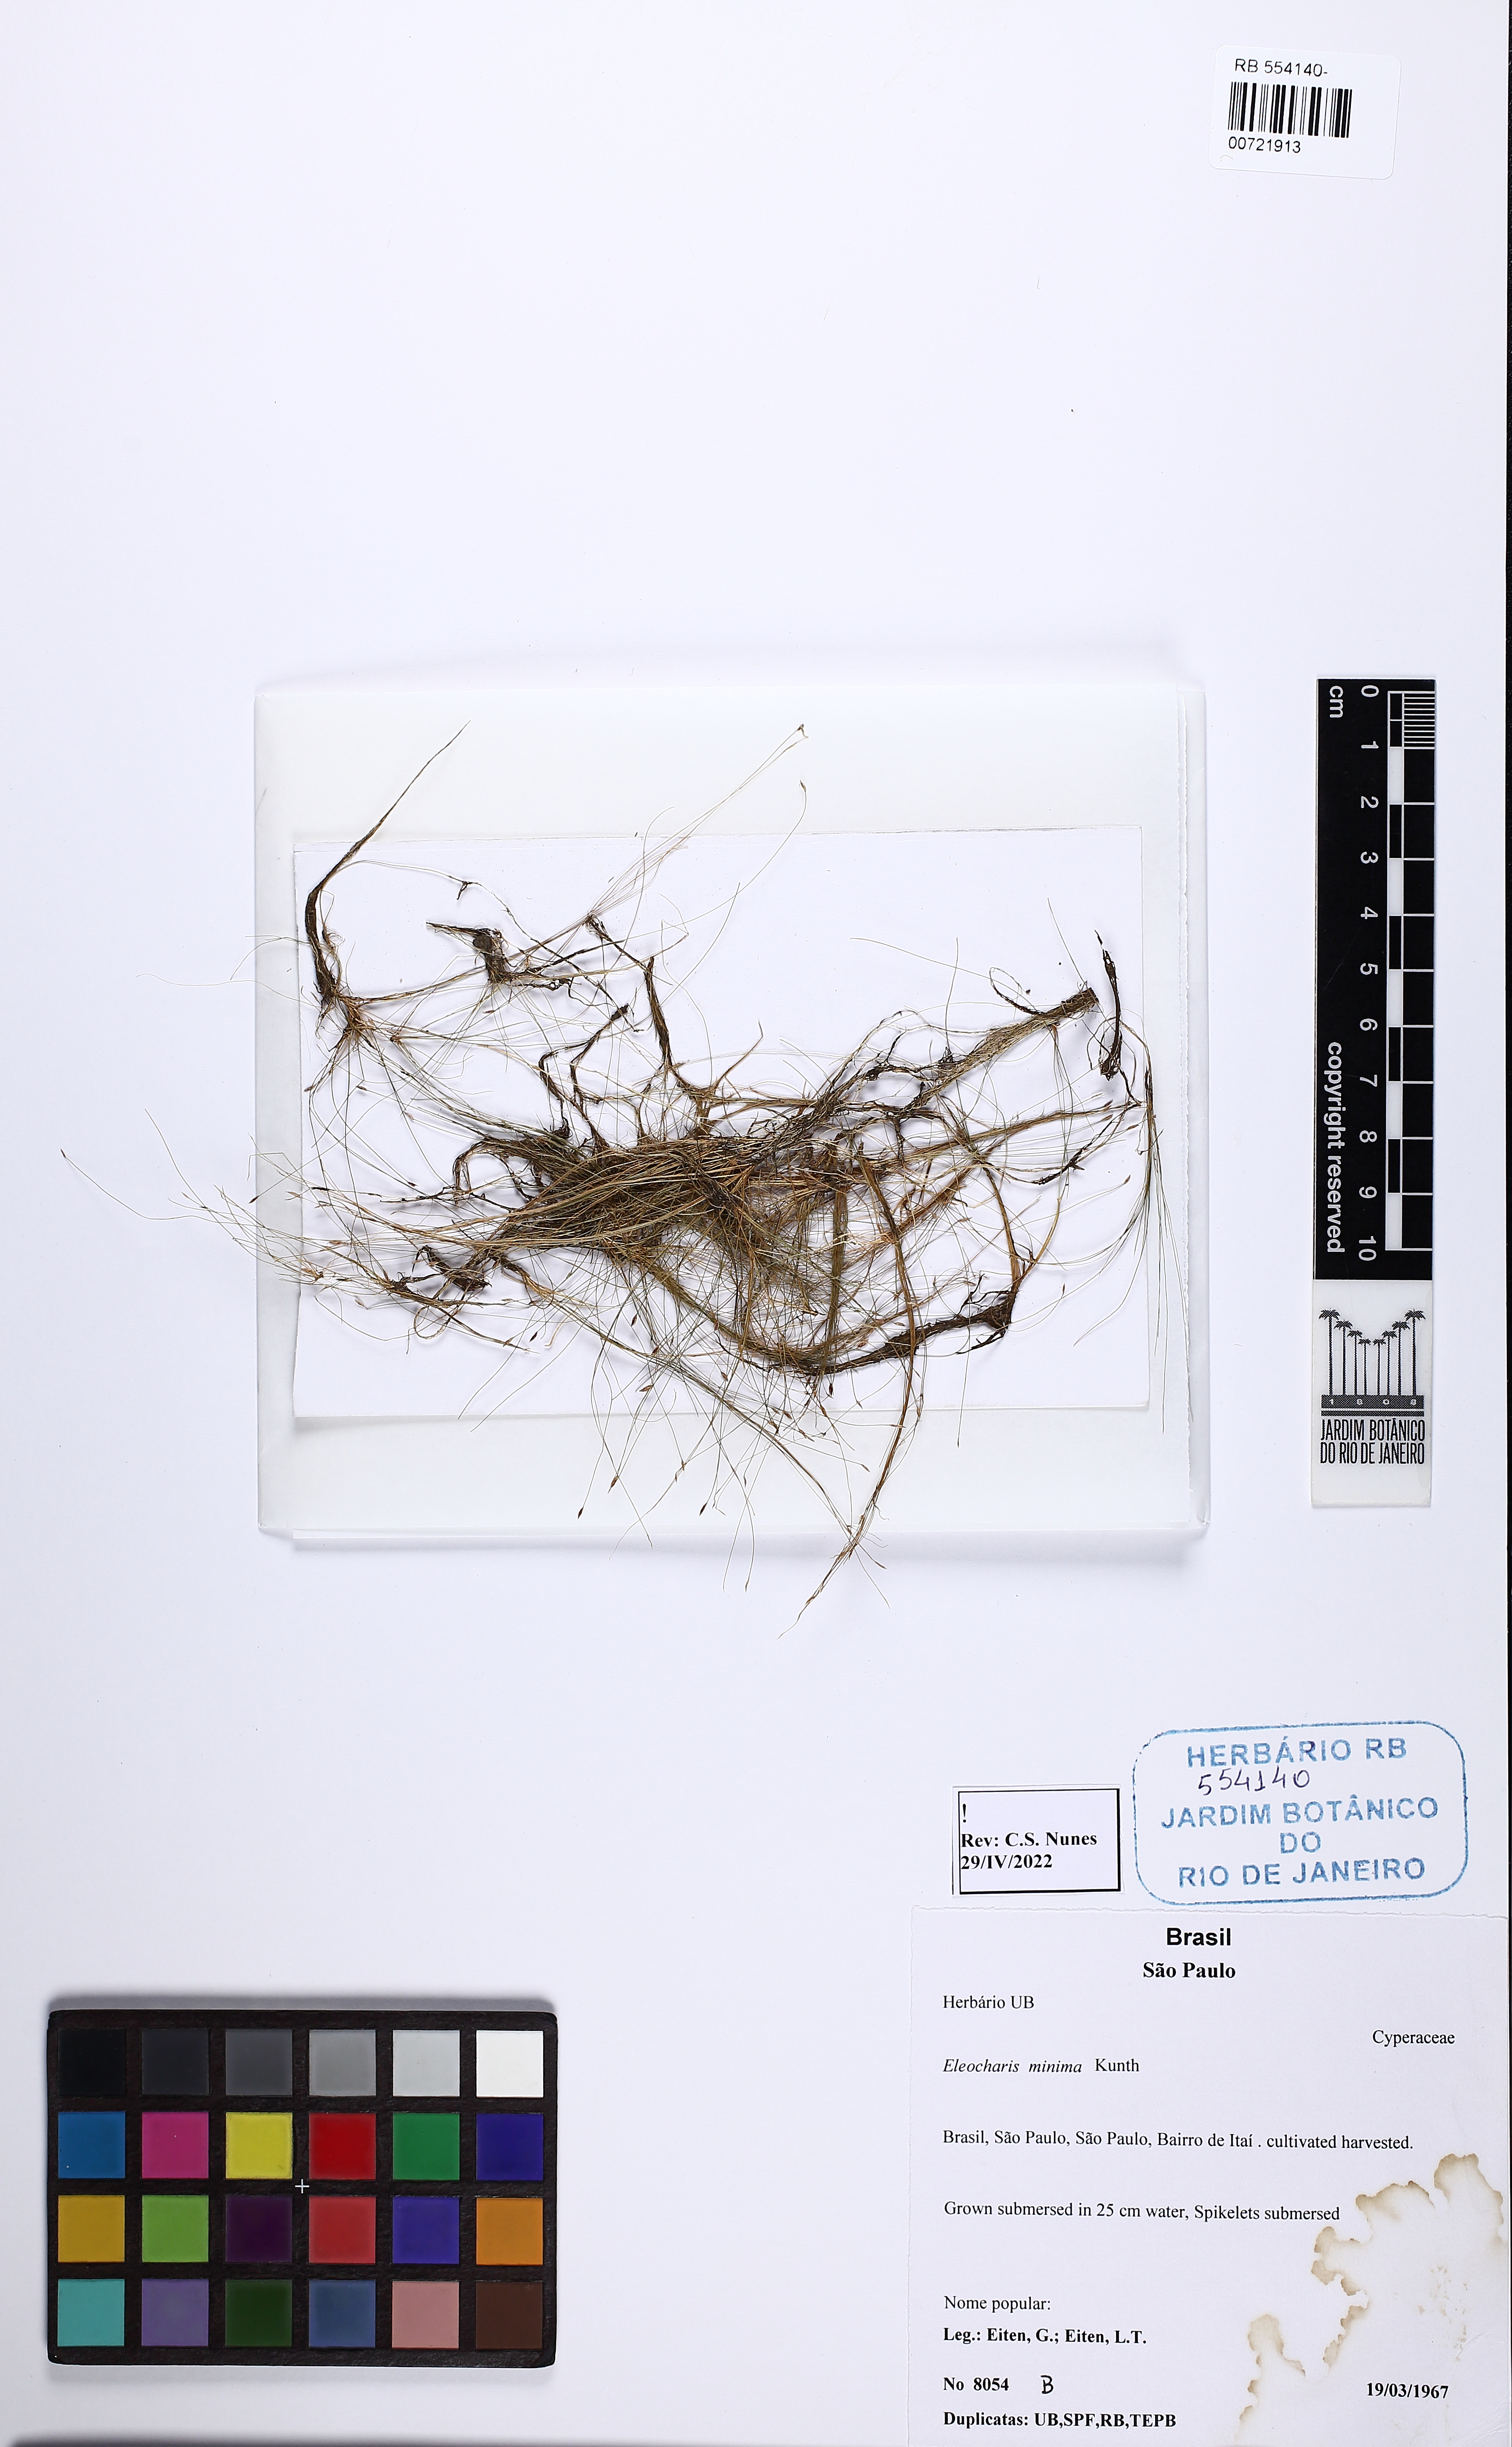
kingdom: Plantae
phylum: Tracheophyta
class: Liliopsida
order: Poales
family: Cyperaceae
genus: Eleocharis
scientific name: Eleocharis minima
